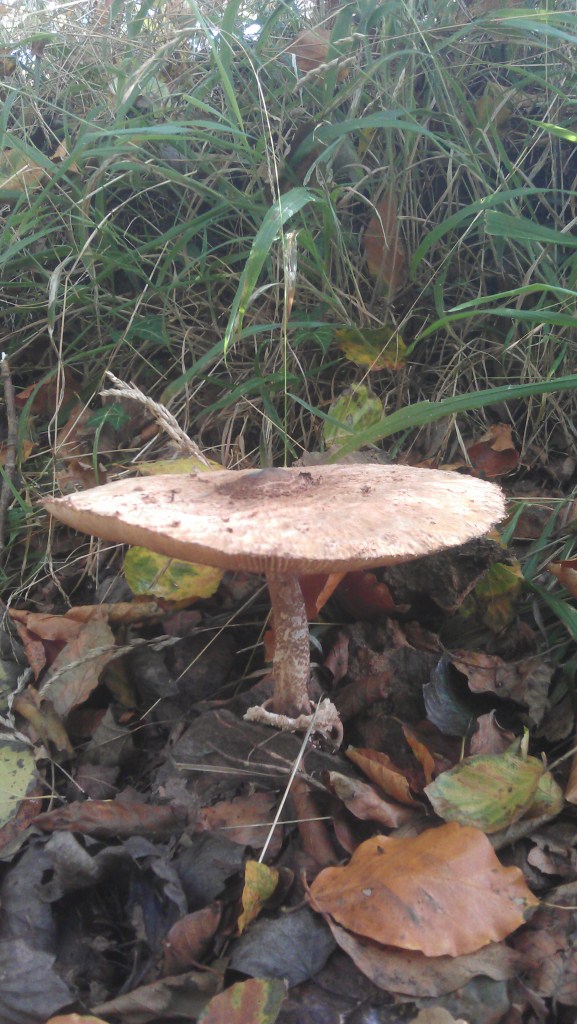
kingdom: Fungi
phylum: Basidiomycota
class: Agaricomycetes
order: Agaricales
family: Agaricaceae
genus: Macrolepiota
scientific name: Macrolepiota procera
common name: stor kæmpeparasolhat
